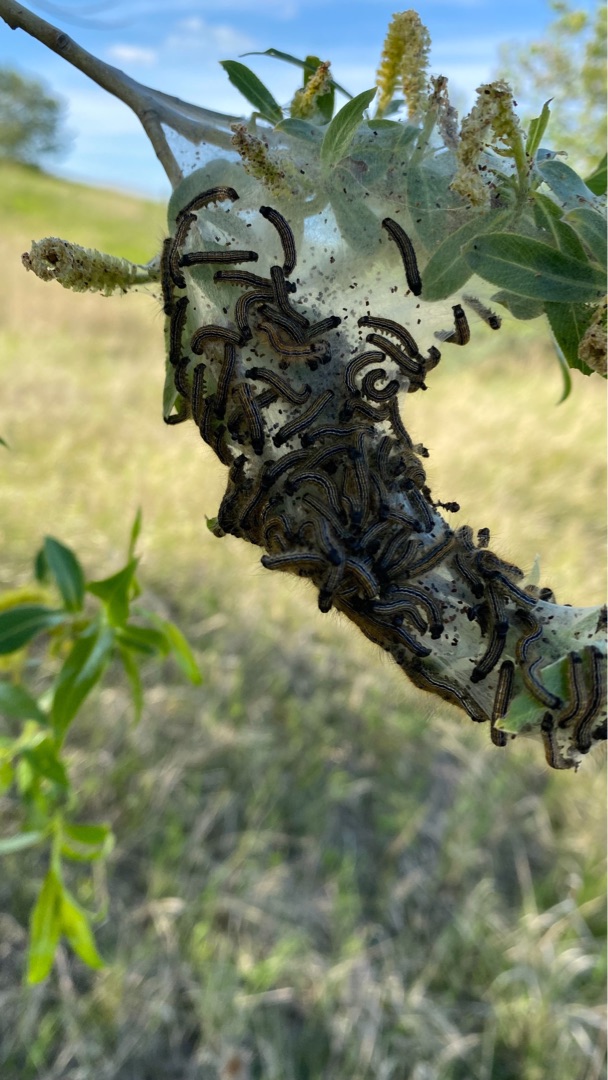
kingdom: Animalia
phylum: Arthropoda
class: Insecta
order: Lepidoptera
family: Lasiocampidae
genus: Malacosoma
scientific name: Malacosoma neustria
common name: Ringspinder
